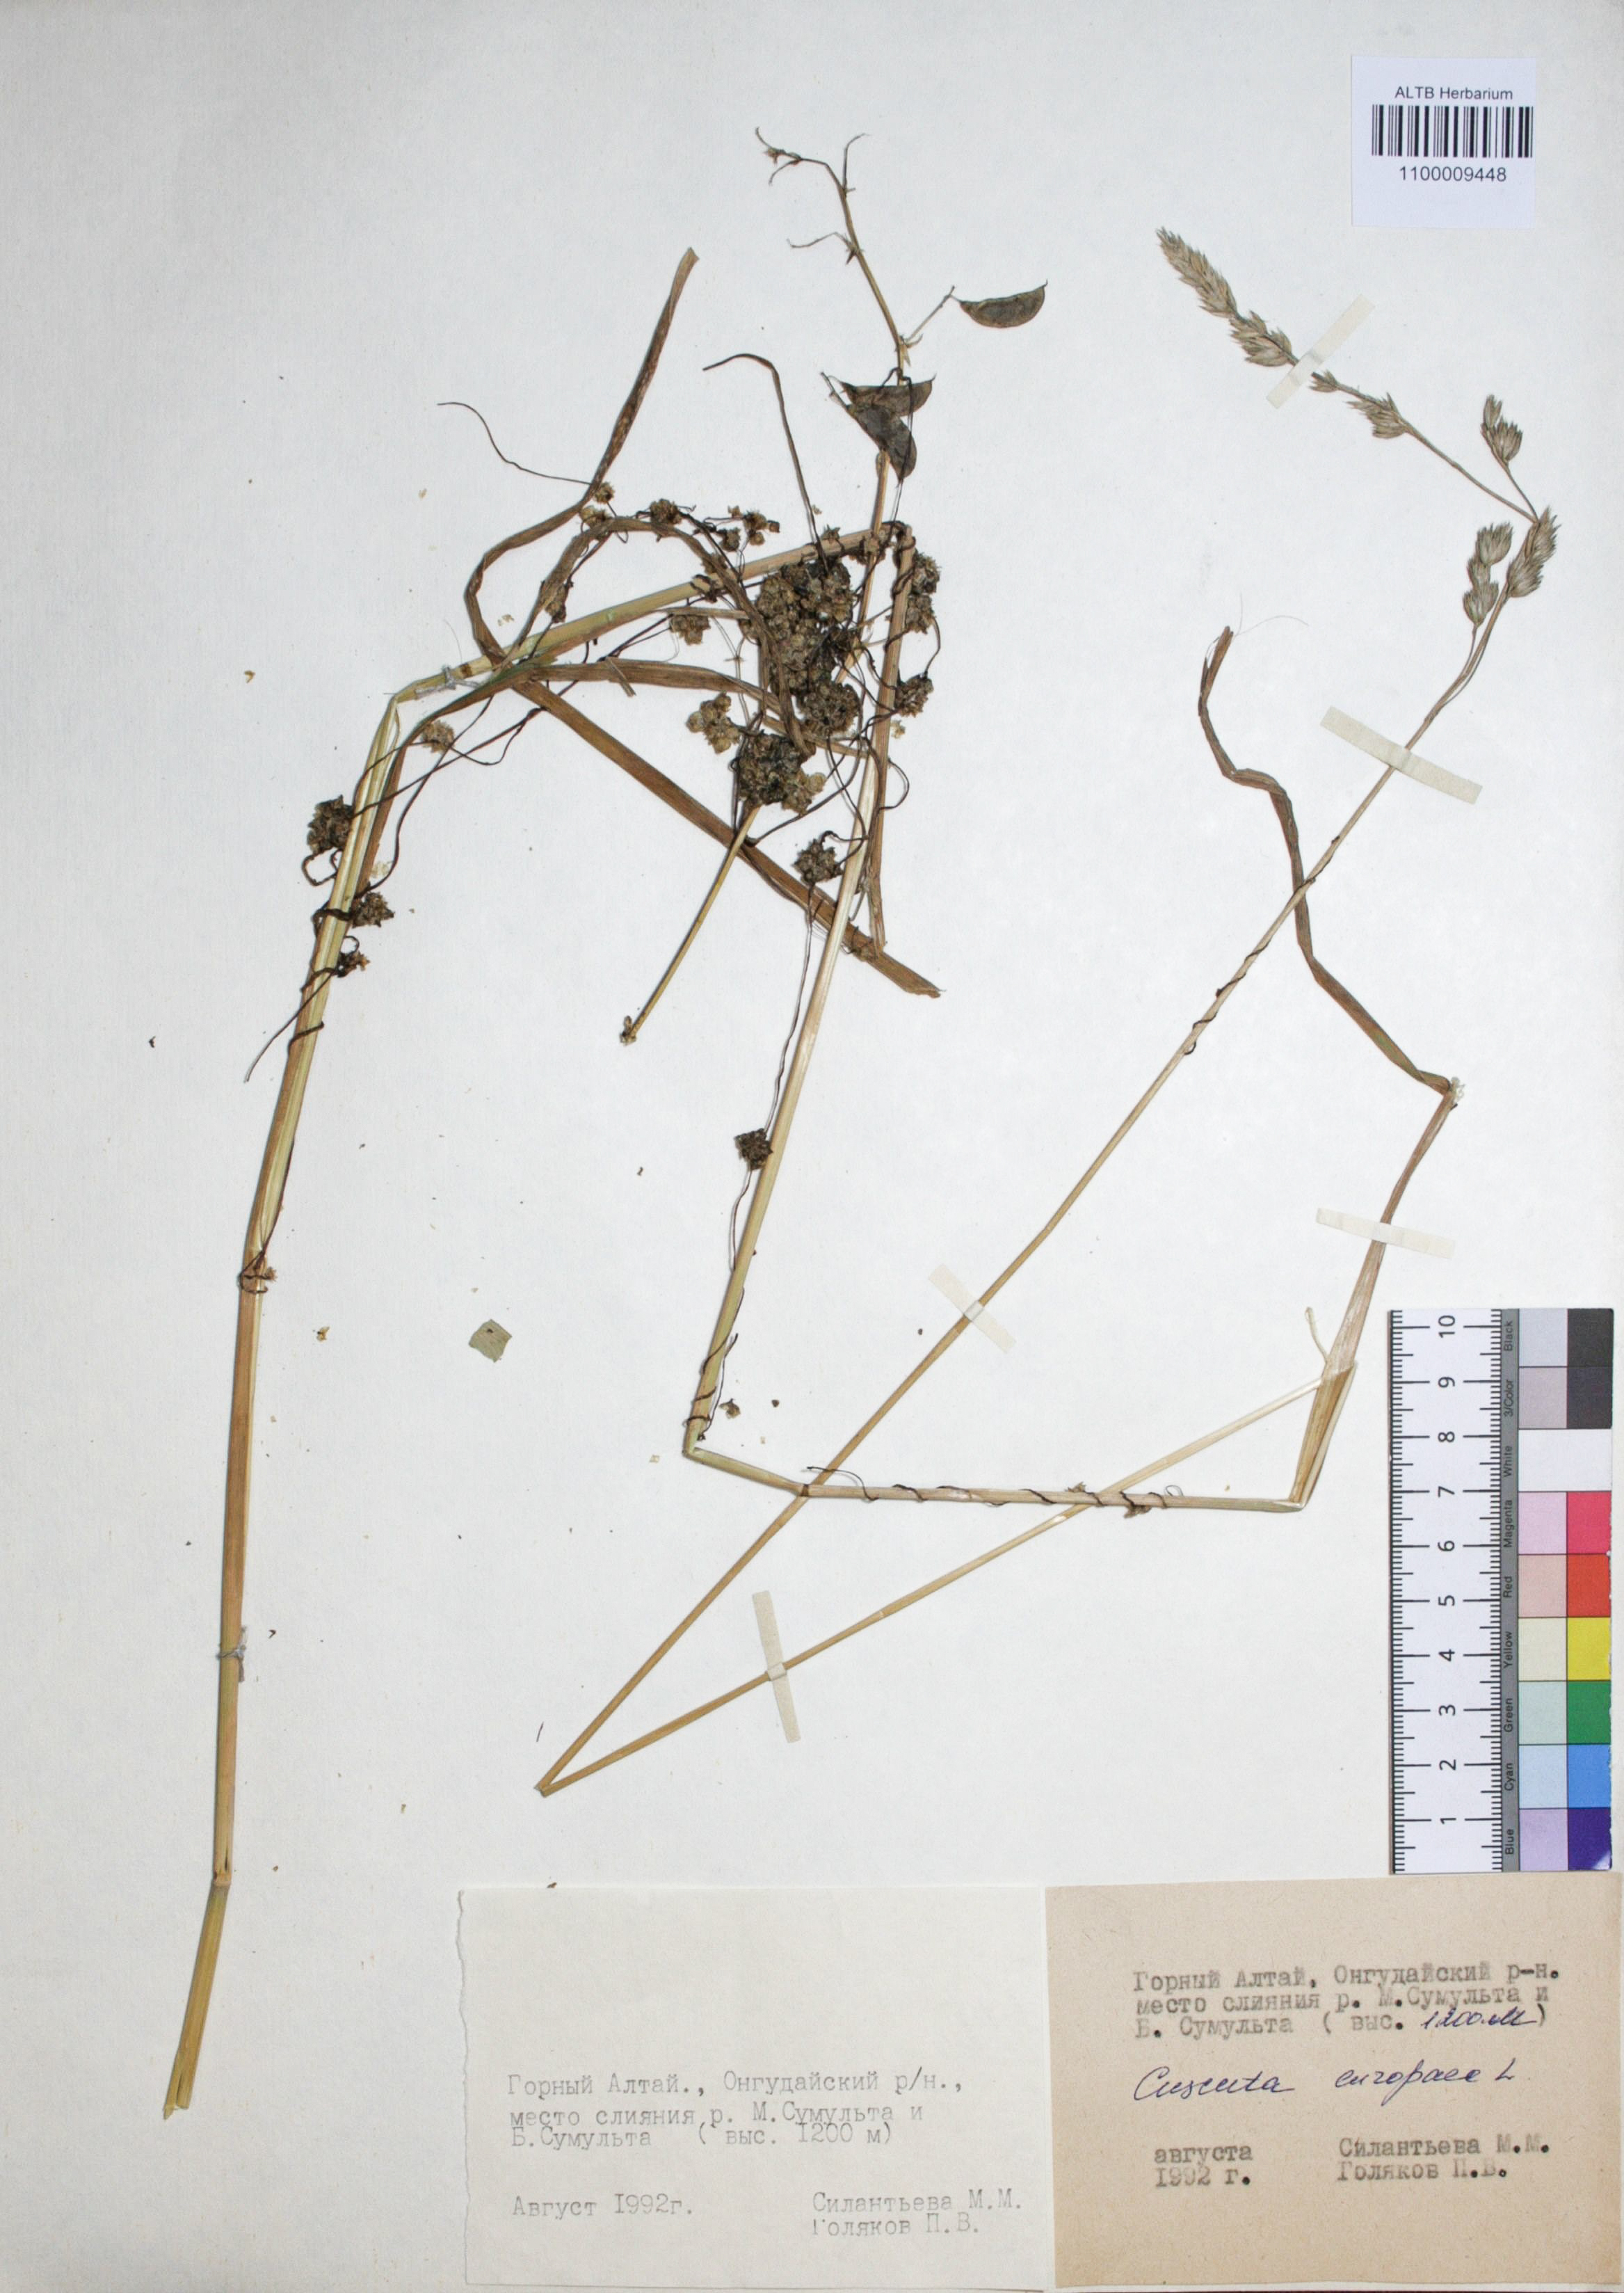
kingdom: Plantae
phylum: Tracheophyta
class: Magnoliopsida
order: Solanales
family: Convolvulaceae
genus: Cuscuta
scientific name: Cuscuta europaea
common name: Greater dodder
